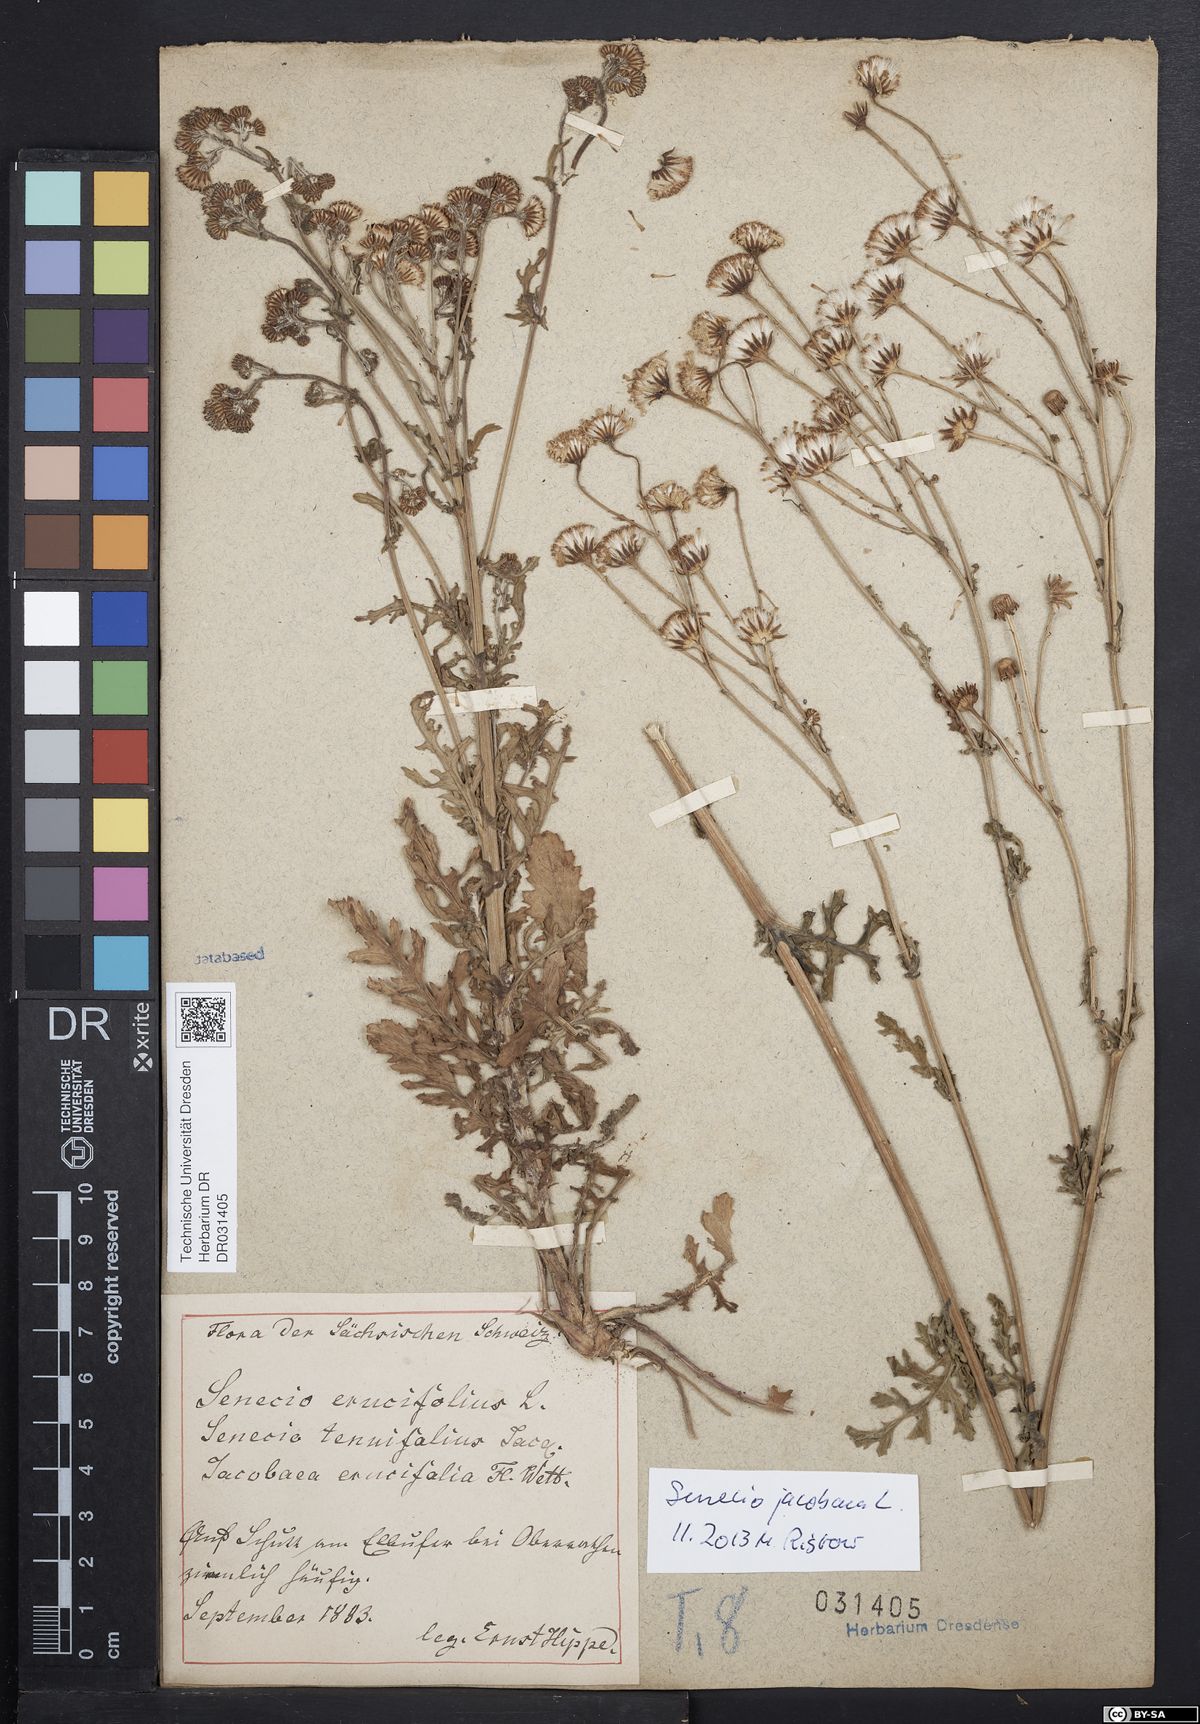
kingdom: Plantae
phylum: Tracheophyta
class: Magnoliopsida
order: Asterales
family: Asteraceae
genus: Jacobaea
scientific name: Jacobaea erucifolia
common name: Hoary ragwort
